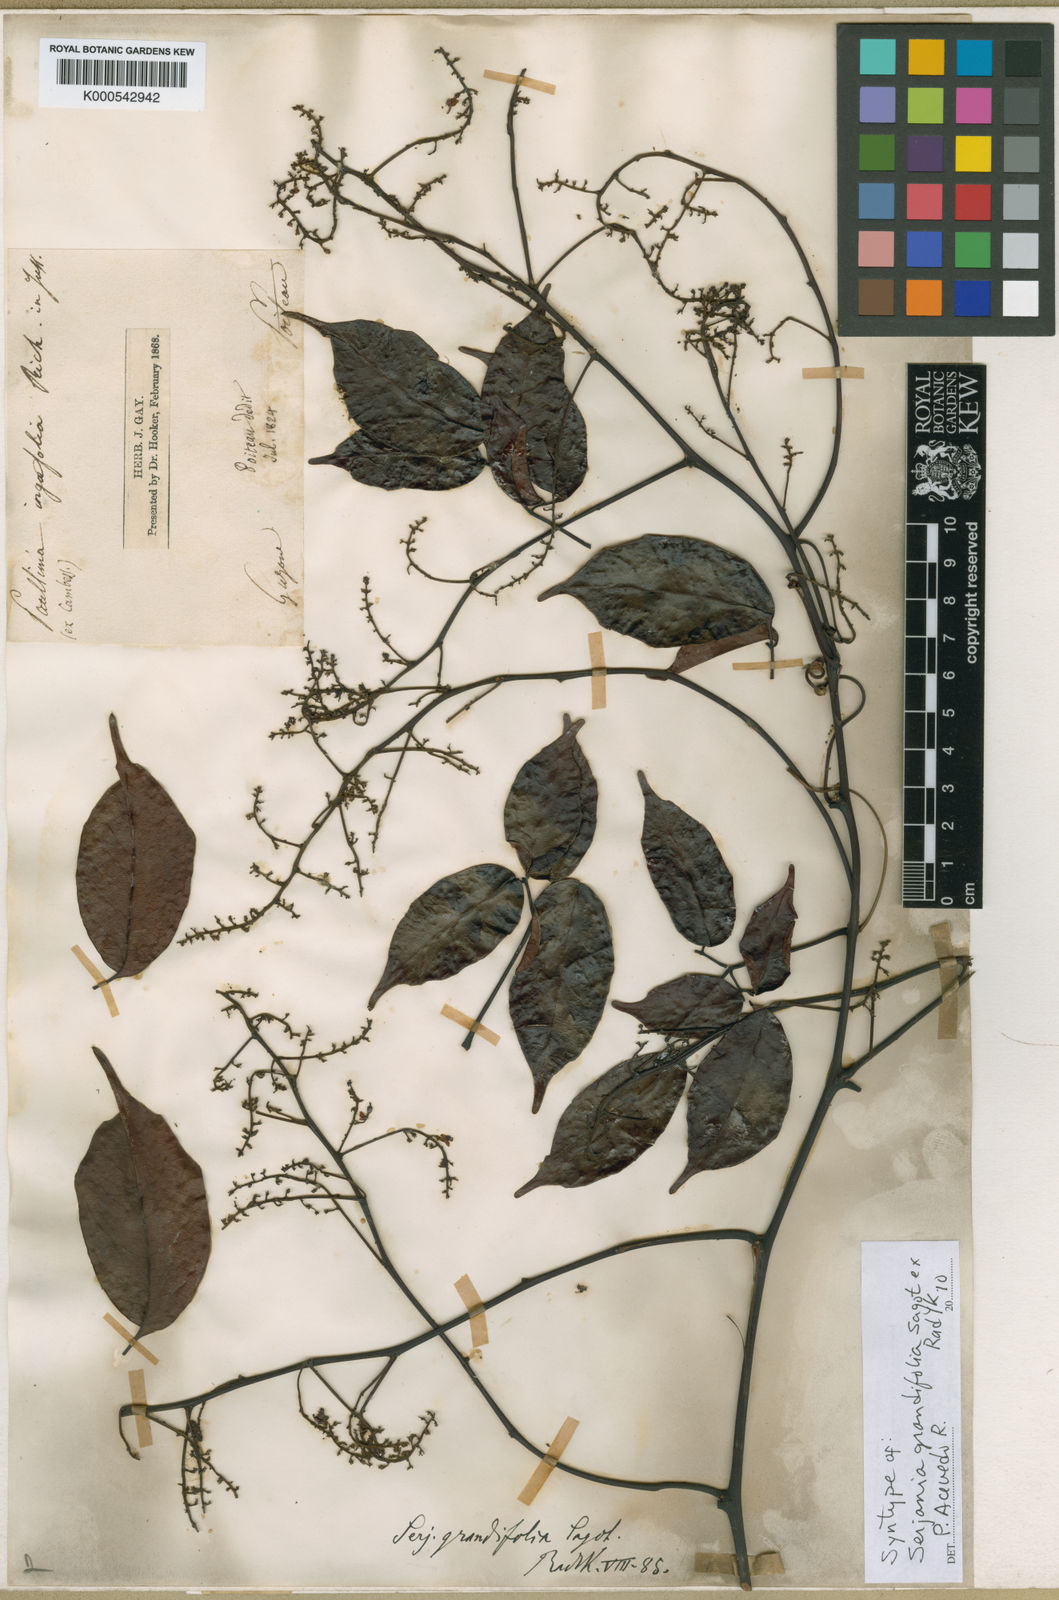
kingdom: Plantae
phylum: Tracheophyta
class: Magnoliopsida
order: Sapindales
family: Sapindaceae
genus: Serjania
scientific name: Serjania grandifolia
